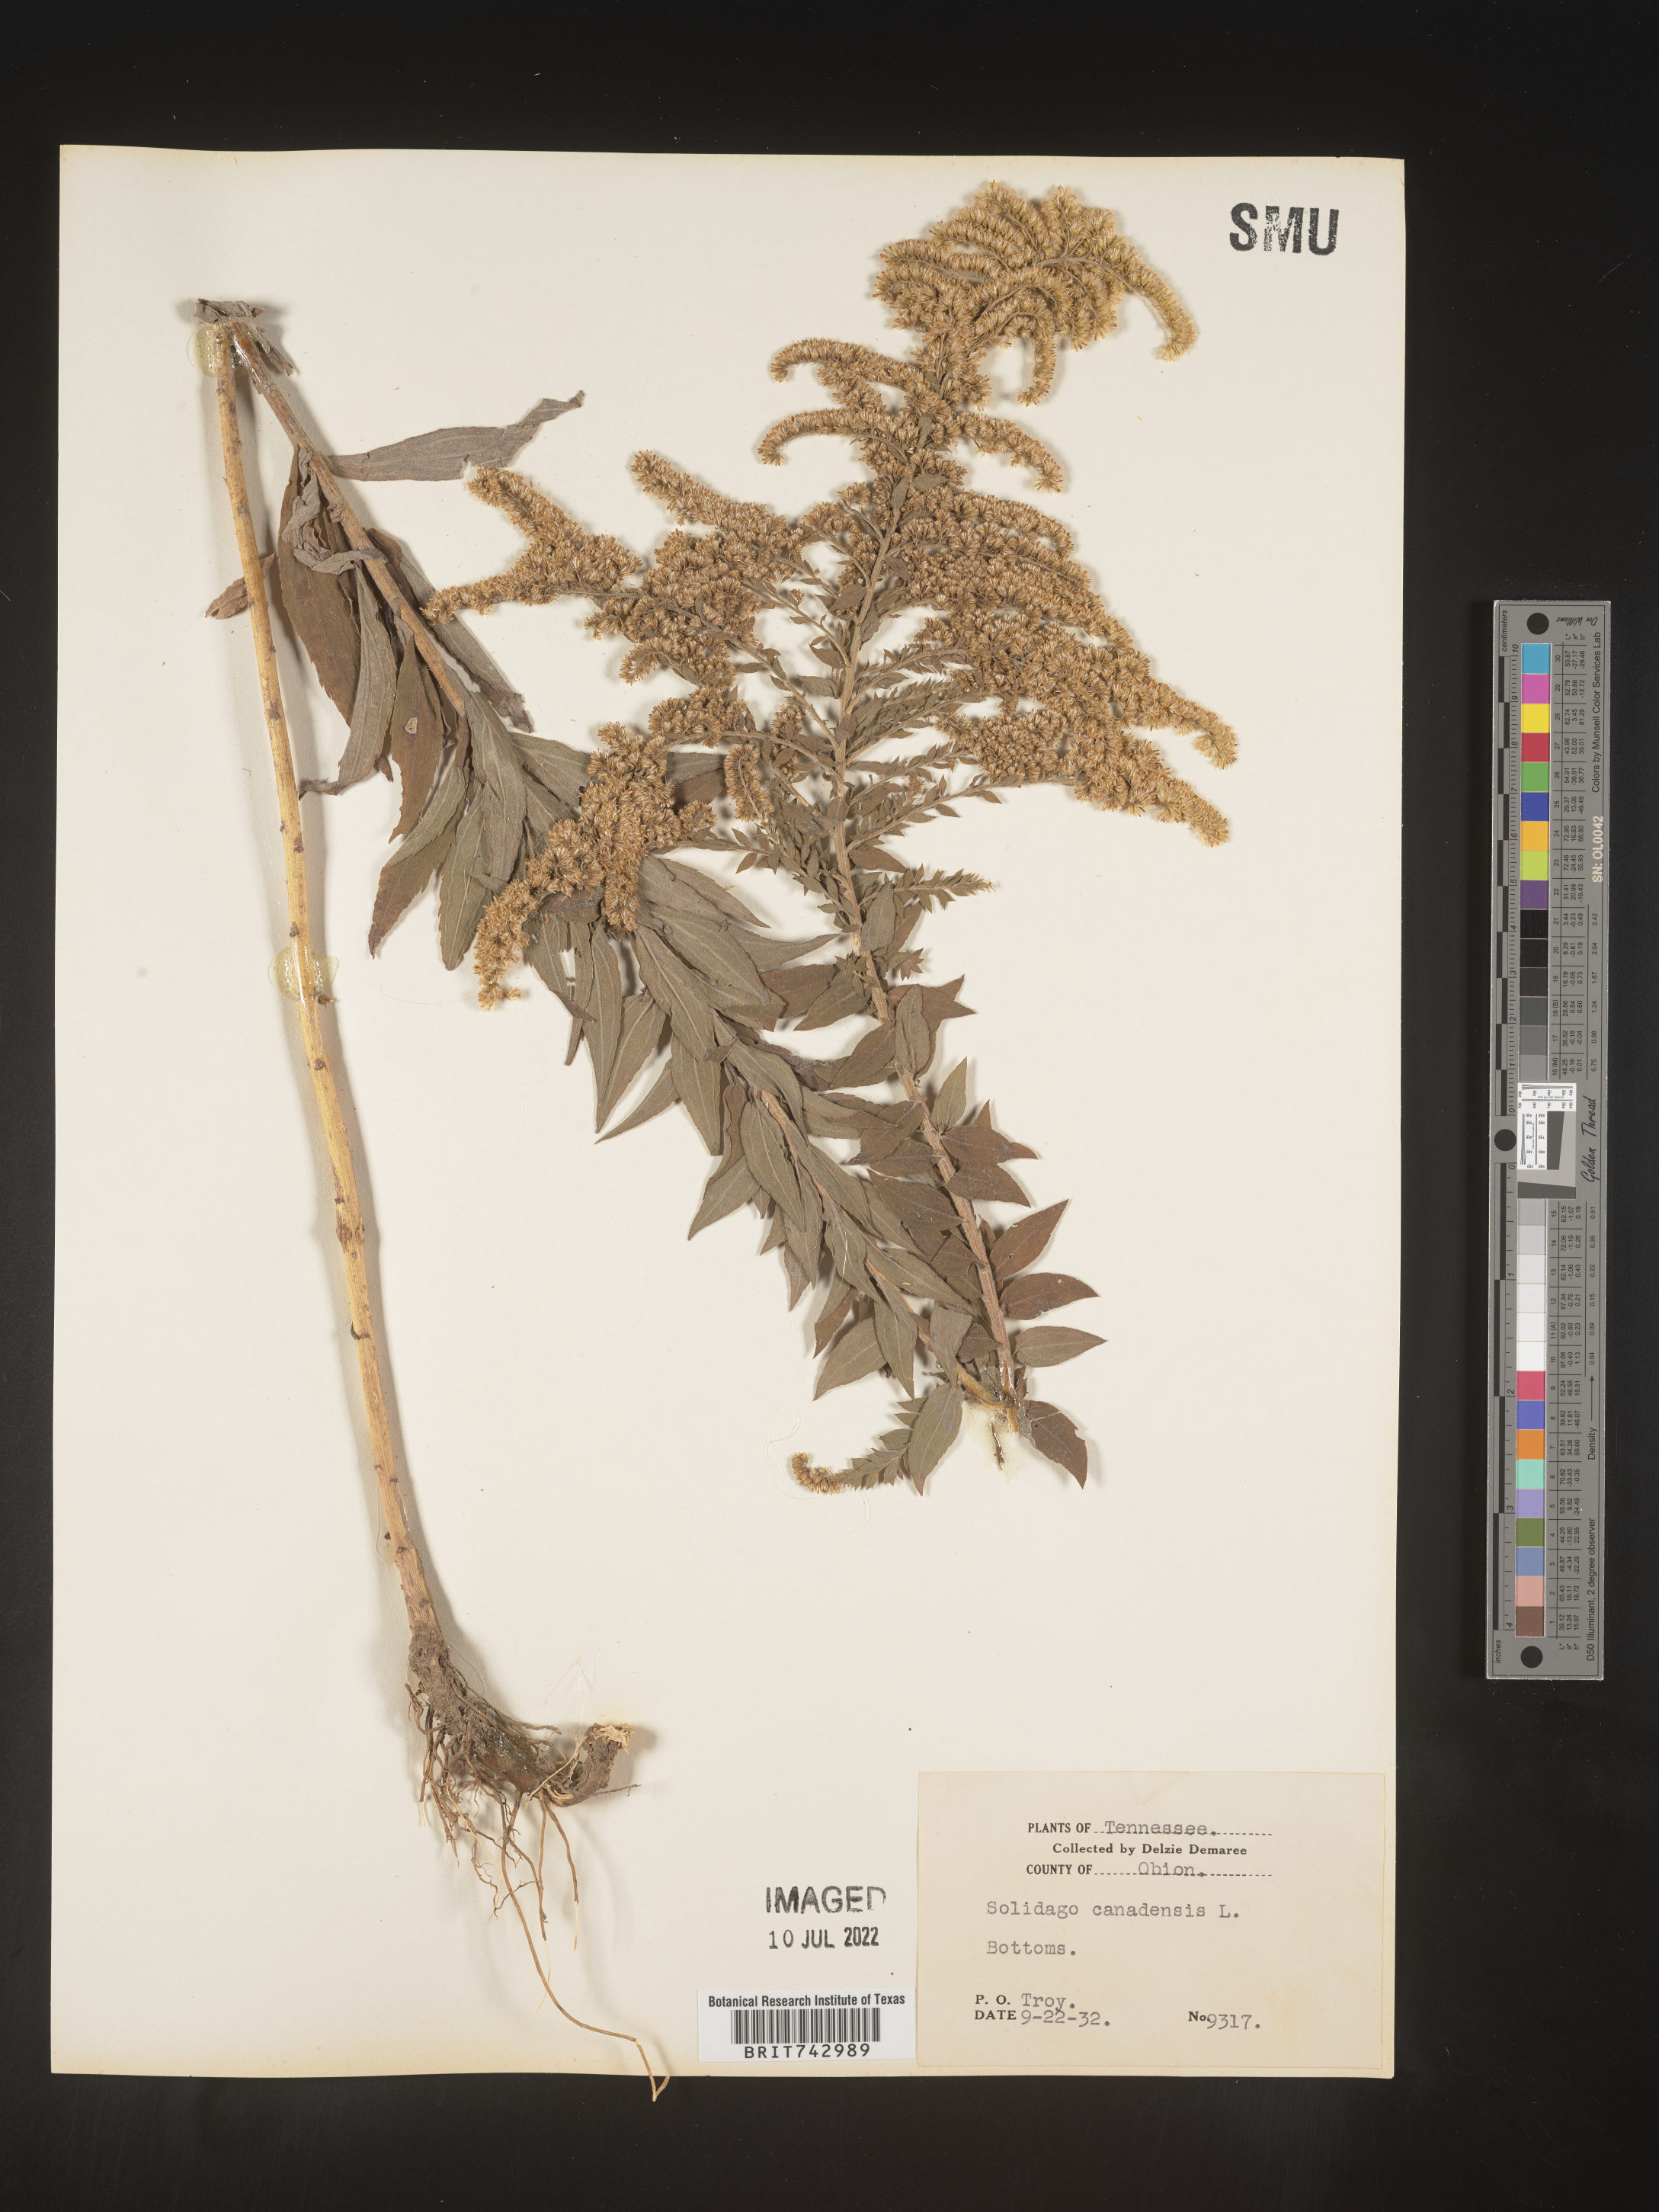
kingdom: Plantae
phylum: Tracheophyta
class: Magnoliopsida
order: Asterales
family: Asteraceae
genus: Solidago
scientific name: Solidago altissima
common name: Late goldenrod
